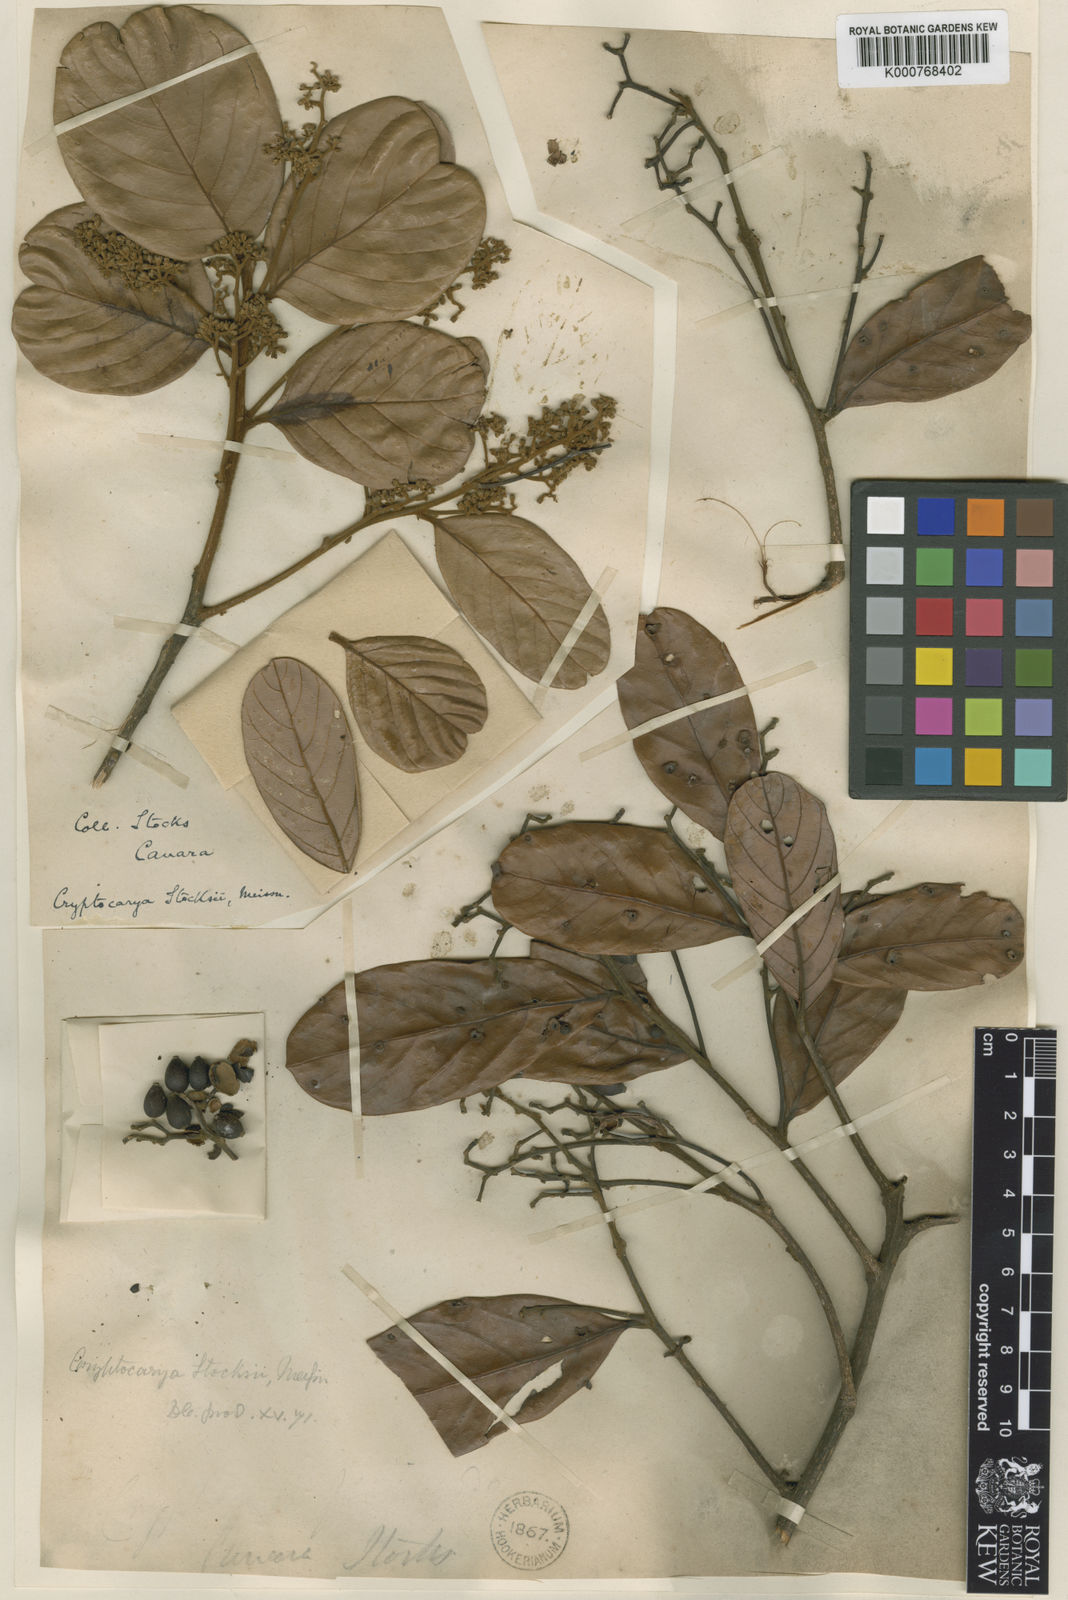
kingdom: Plantae
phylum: Tracheophyta
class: Magnoliopsida
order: Laurales
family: Lauraceae
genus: Litsea
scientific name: Litsea stocksii
